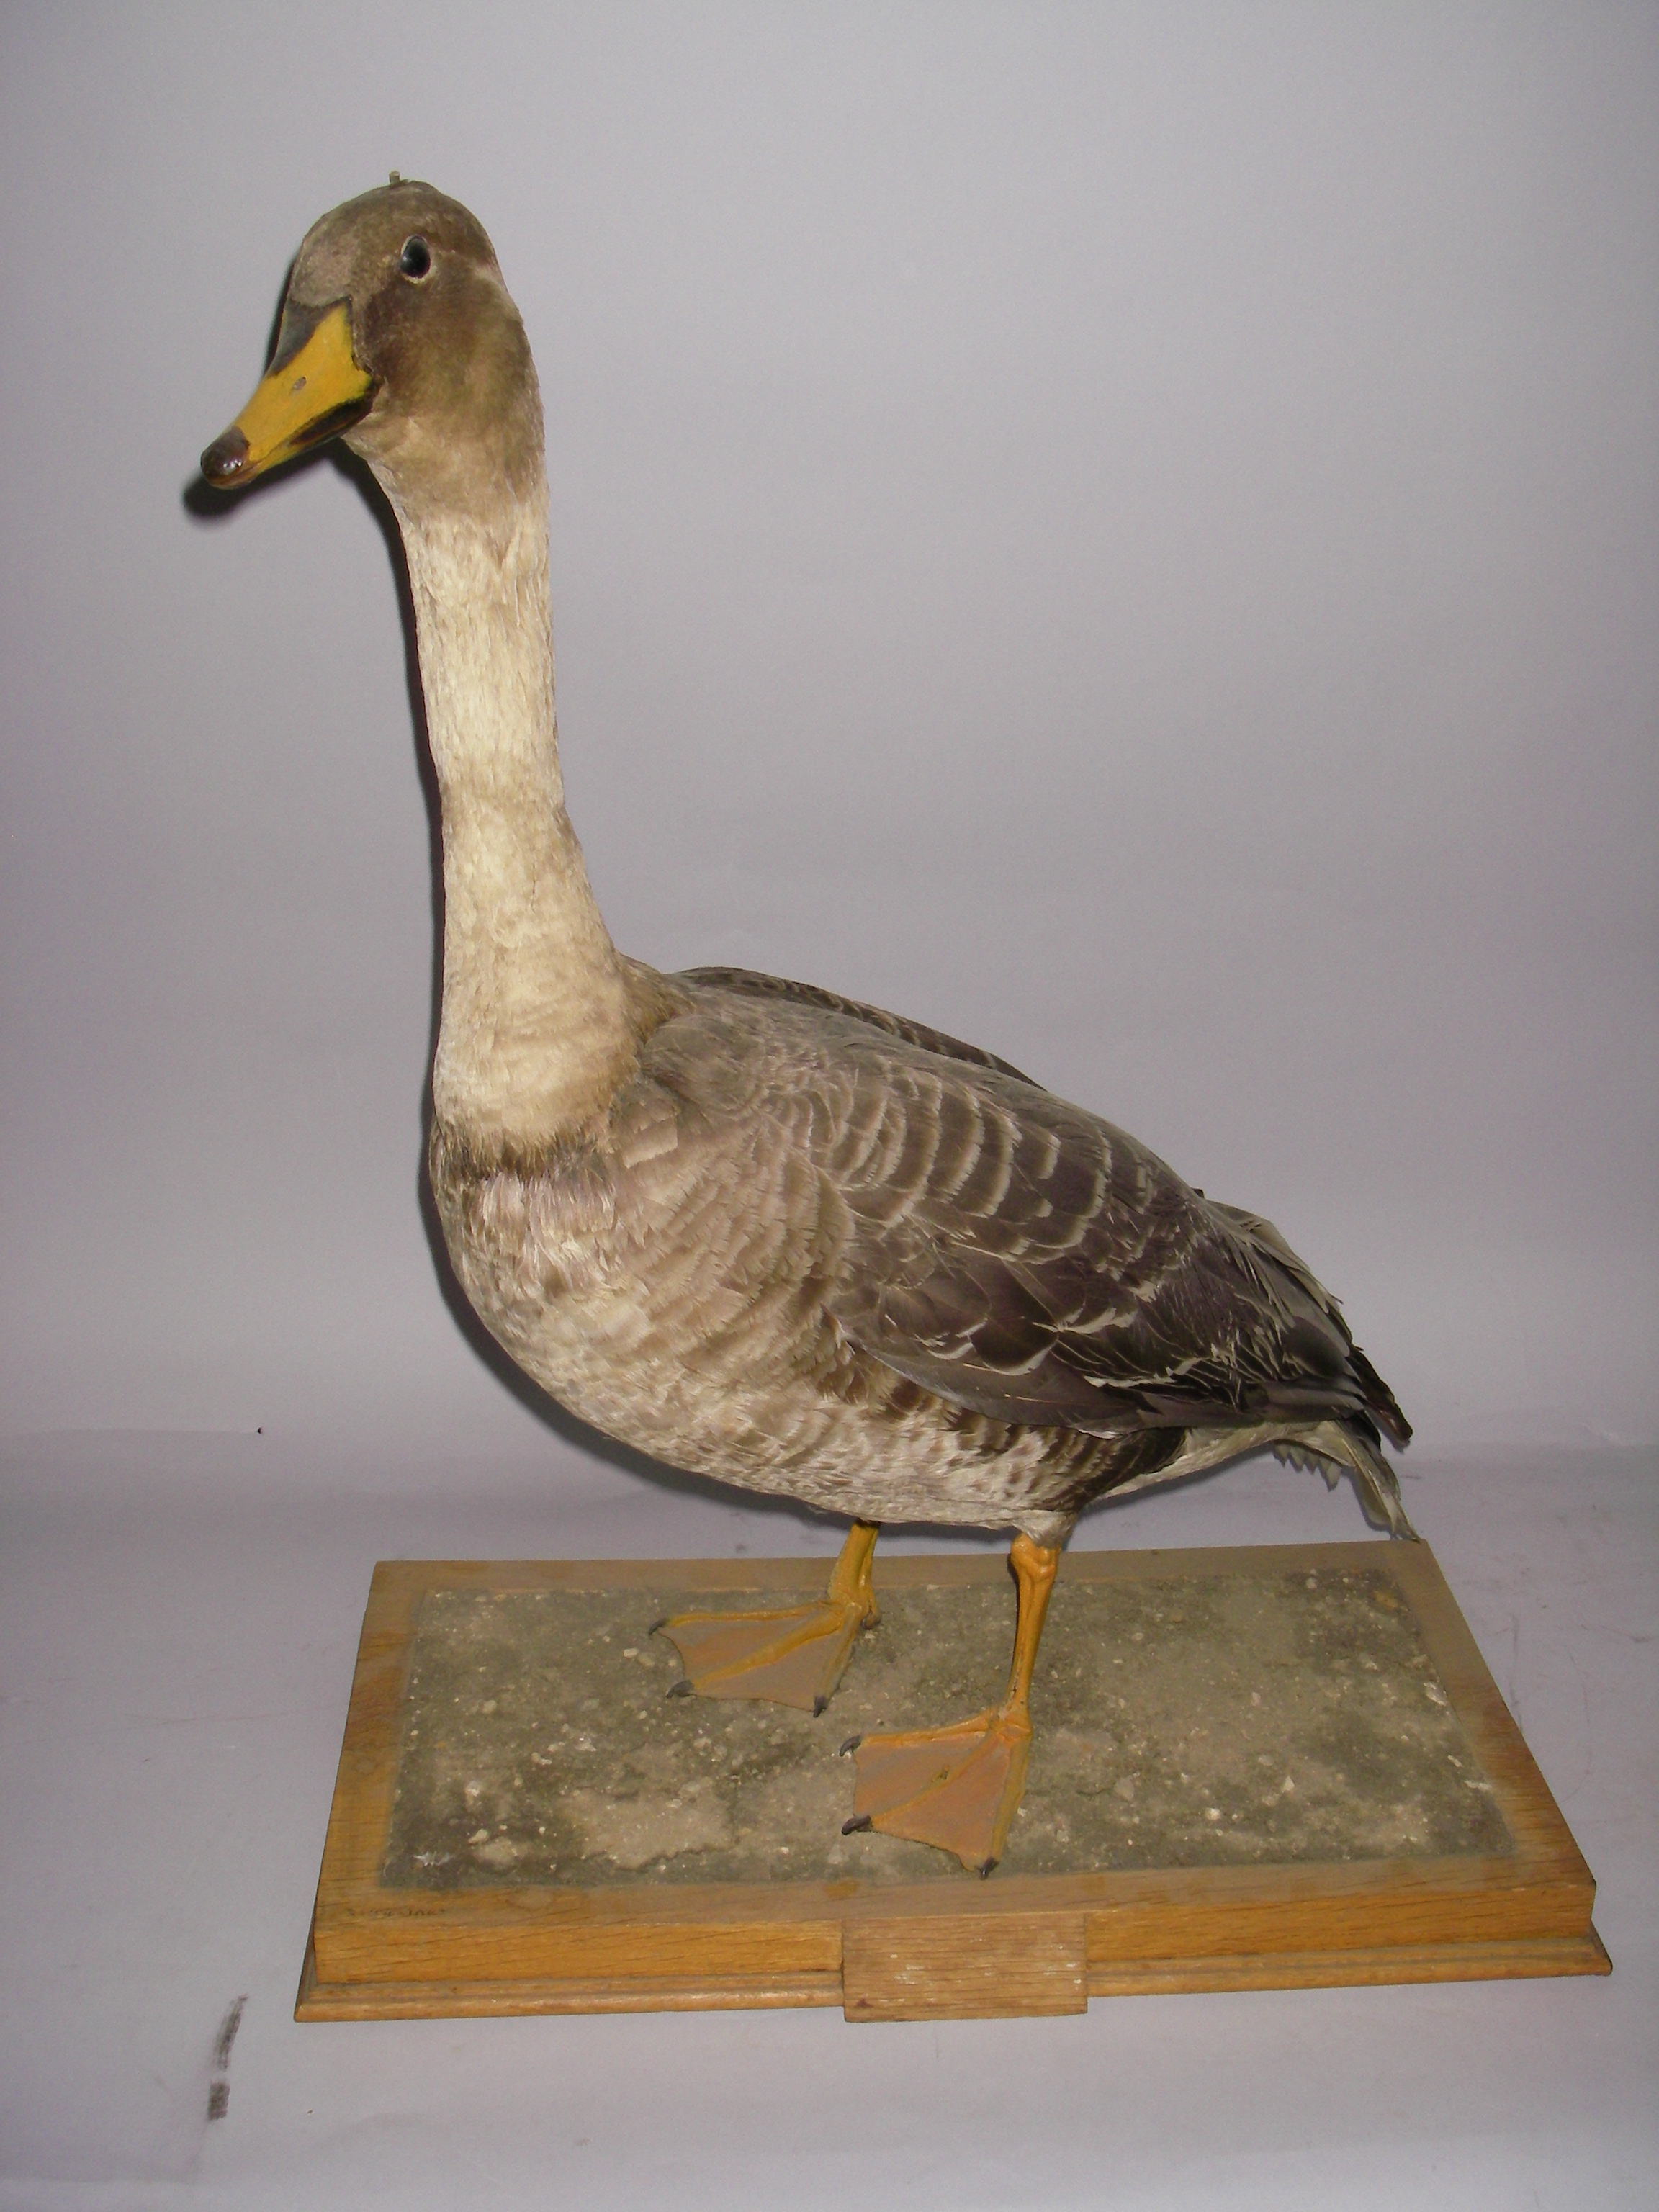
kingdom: Animalia
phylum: Chordata
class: Aves
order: Anseriformes
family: Anatidae
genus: Anser
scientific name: Anser fabalis
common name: Bean goose
